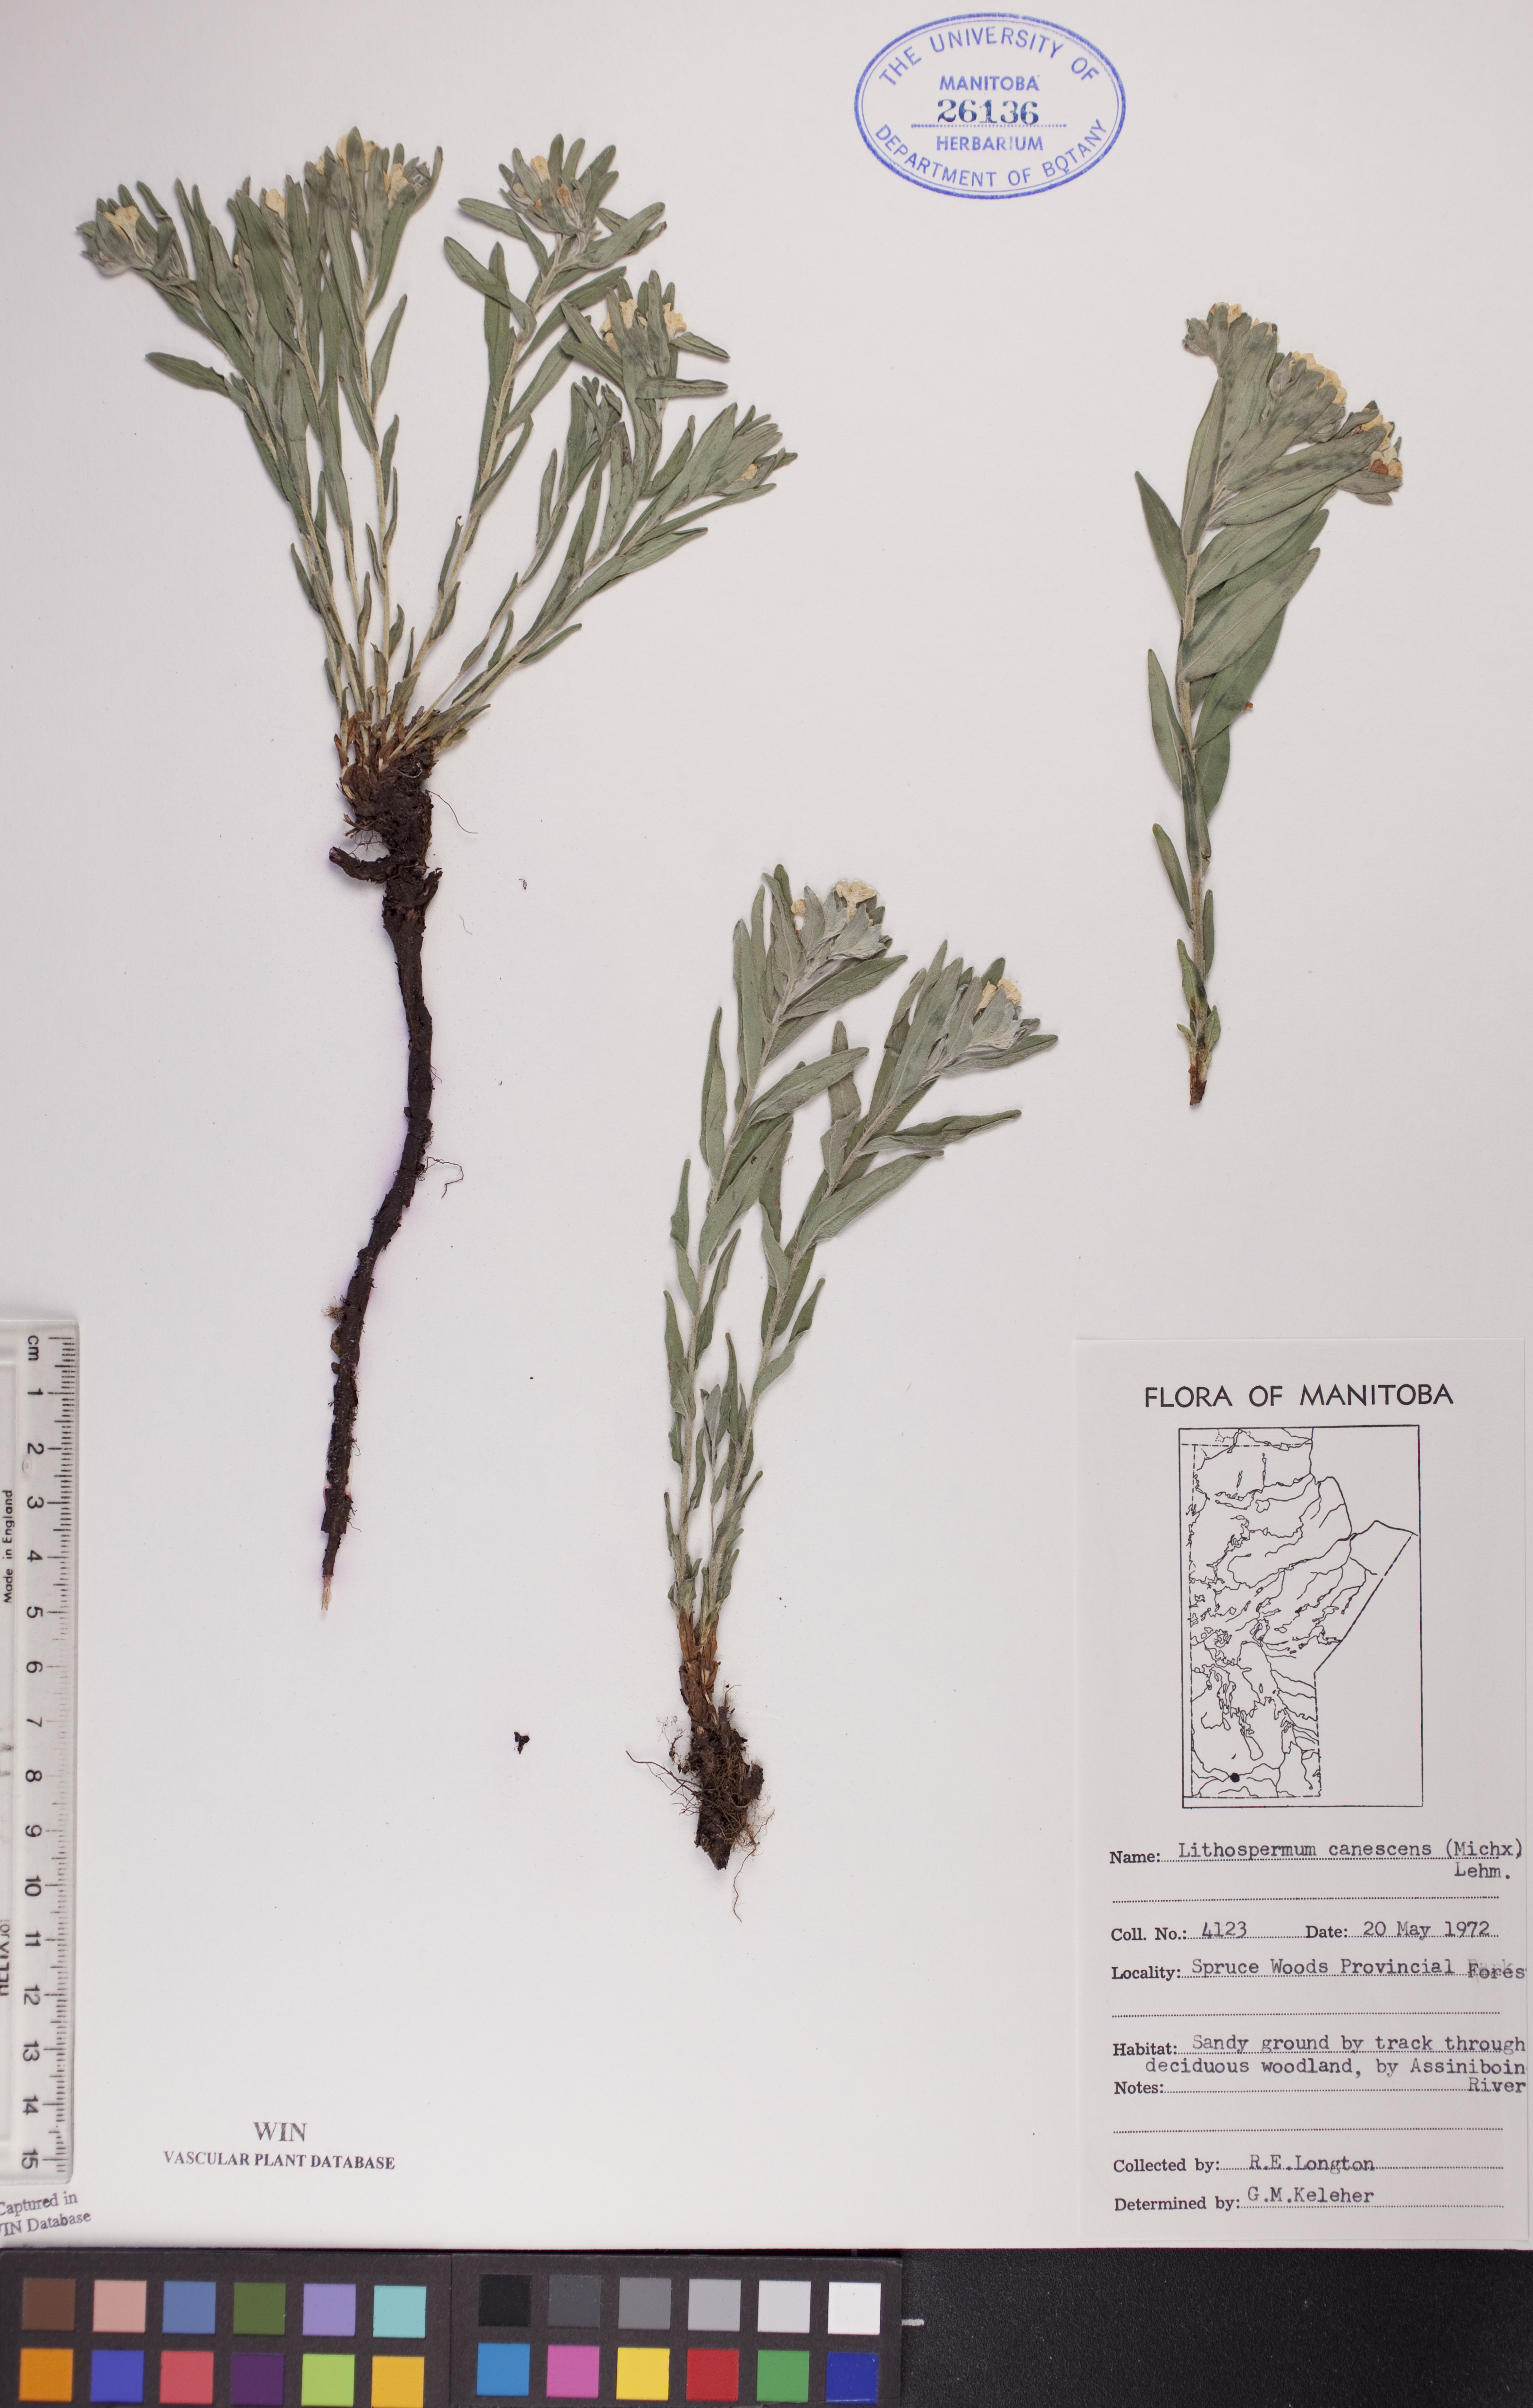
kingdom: Plantae
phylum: Tracheophyta
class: Magnoliopsida
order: Boraginales
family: Boraginaceae
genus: Lithospermum
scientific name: Lithospermum canescens
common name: Hoary puccoon
